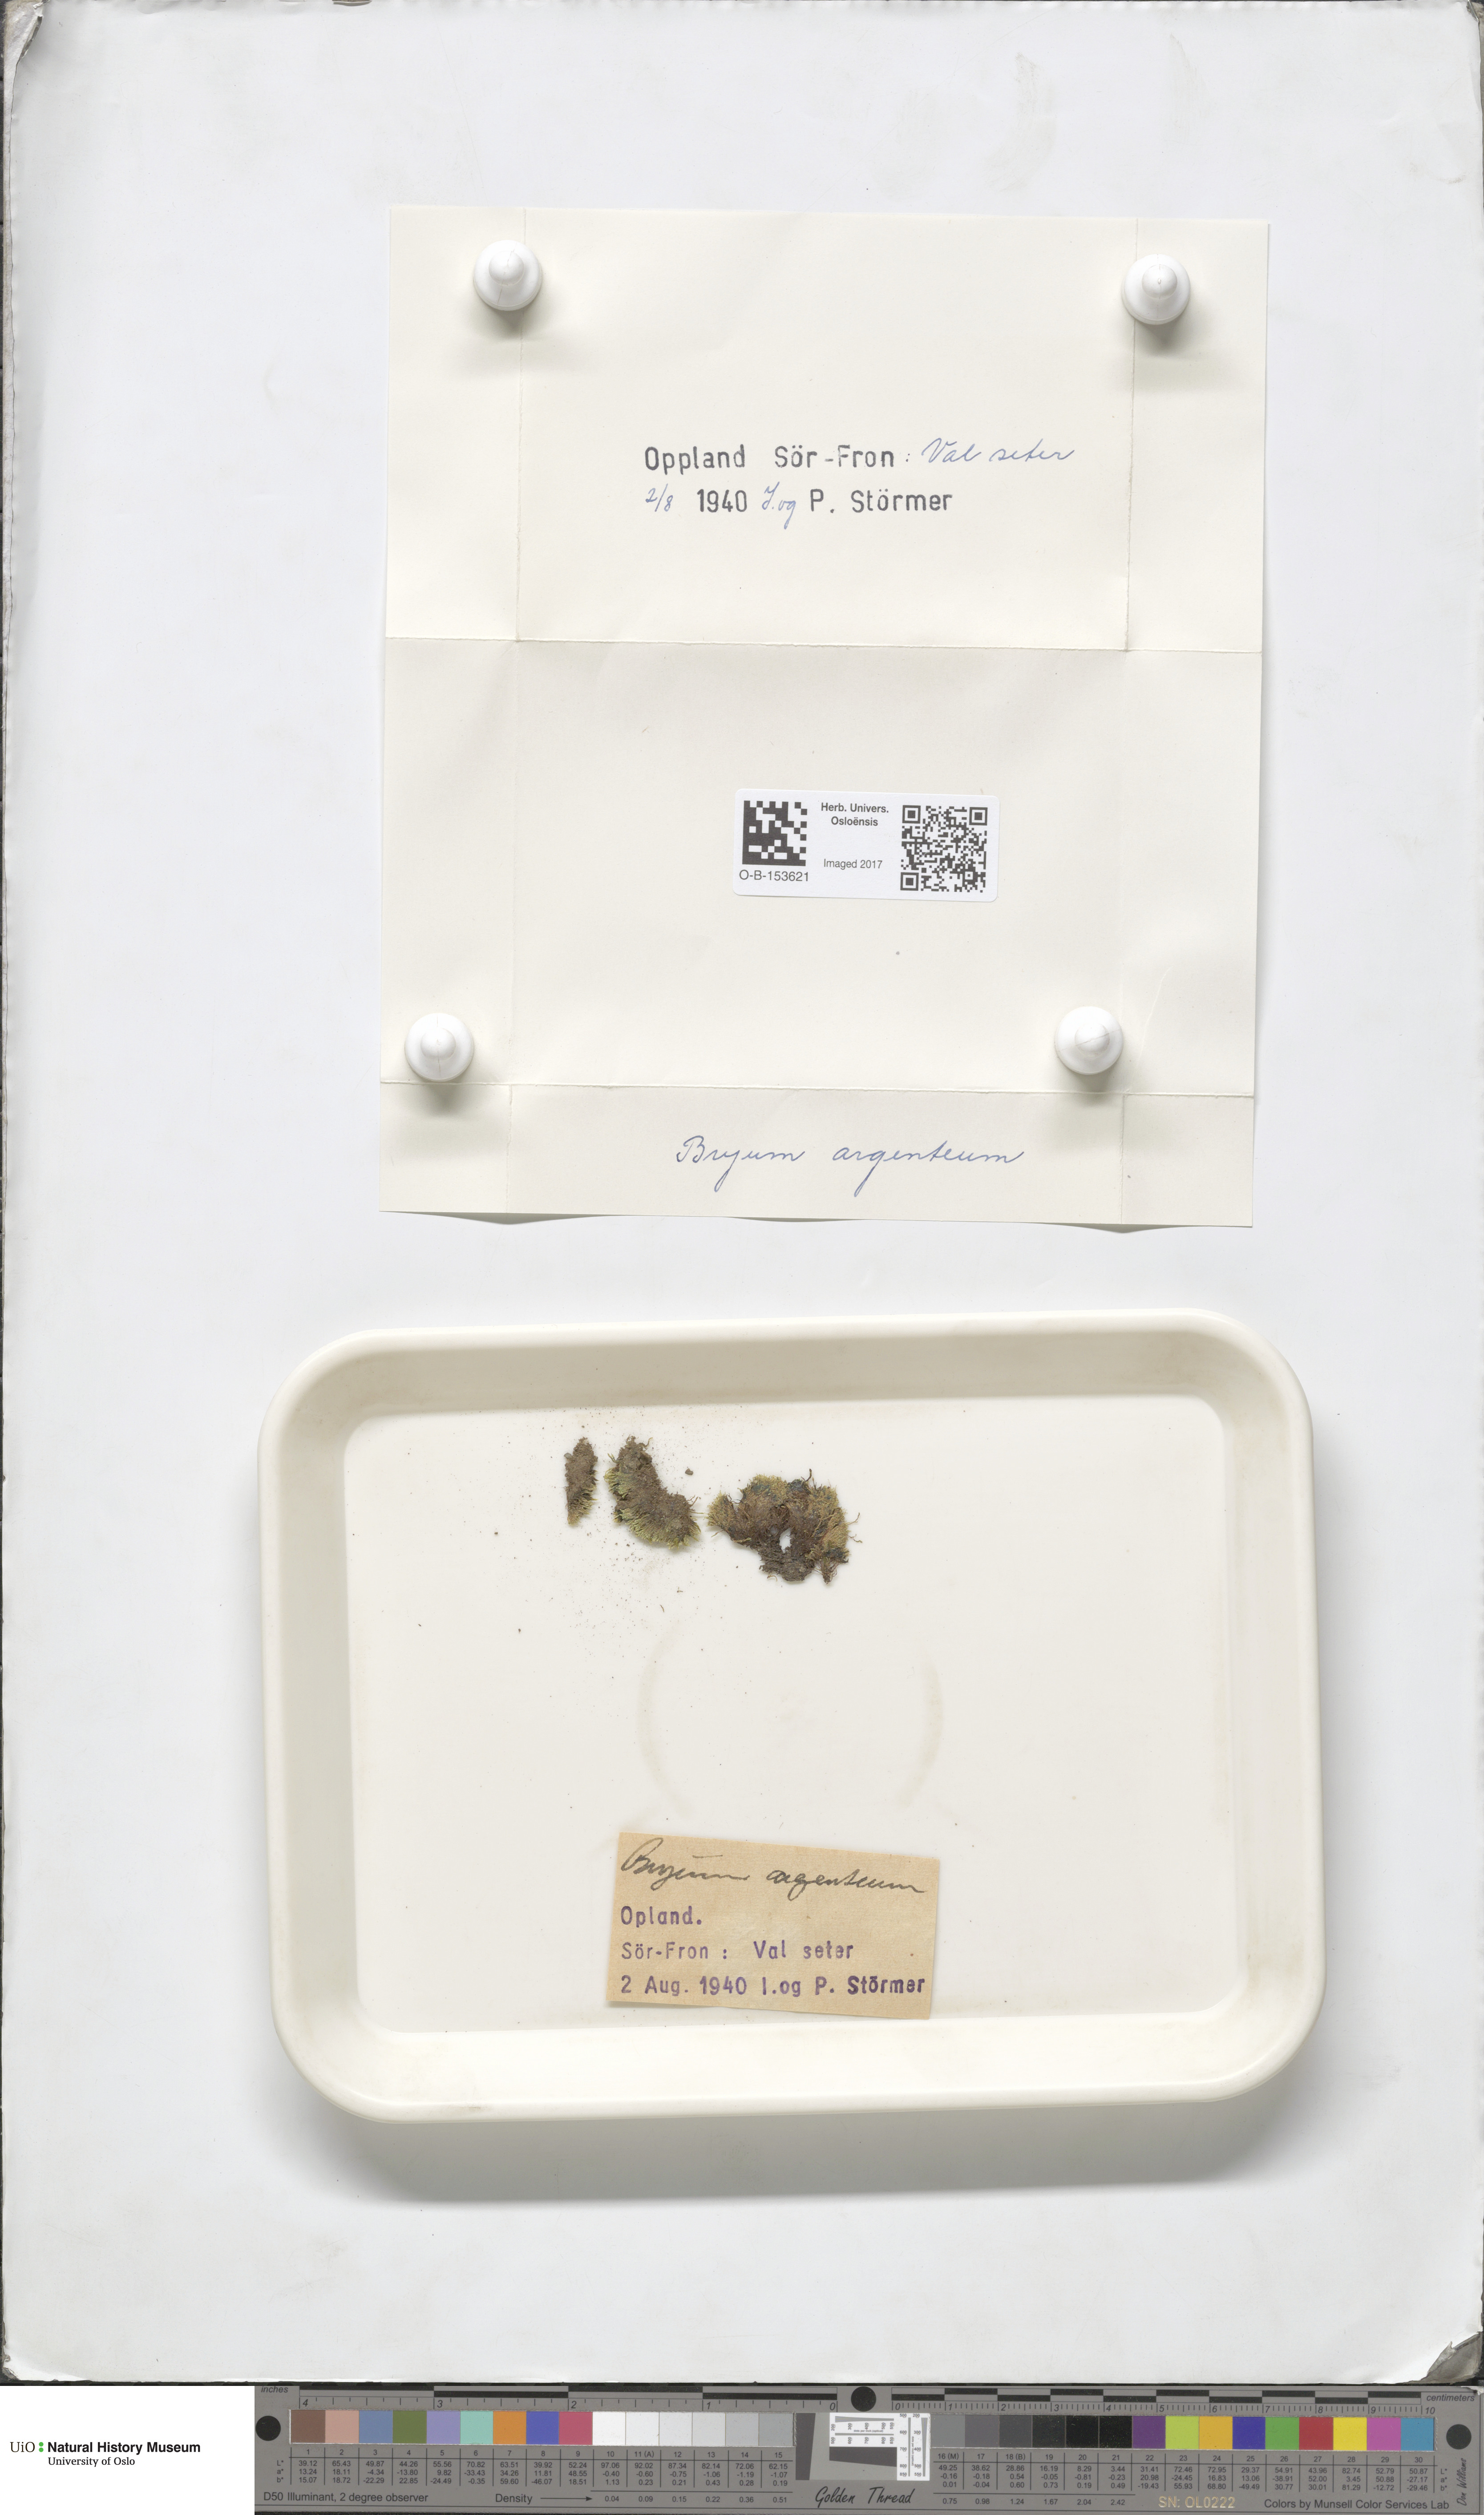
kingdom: Plantae
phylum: Bryophyta
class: Bryopsida
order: Bryales
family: Bryaceae
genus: Bryum
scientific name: Bryum argenteum
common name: Silver-moss
